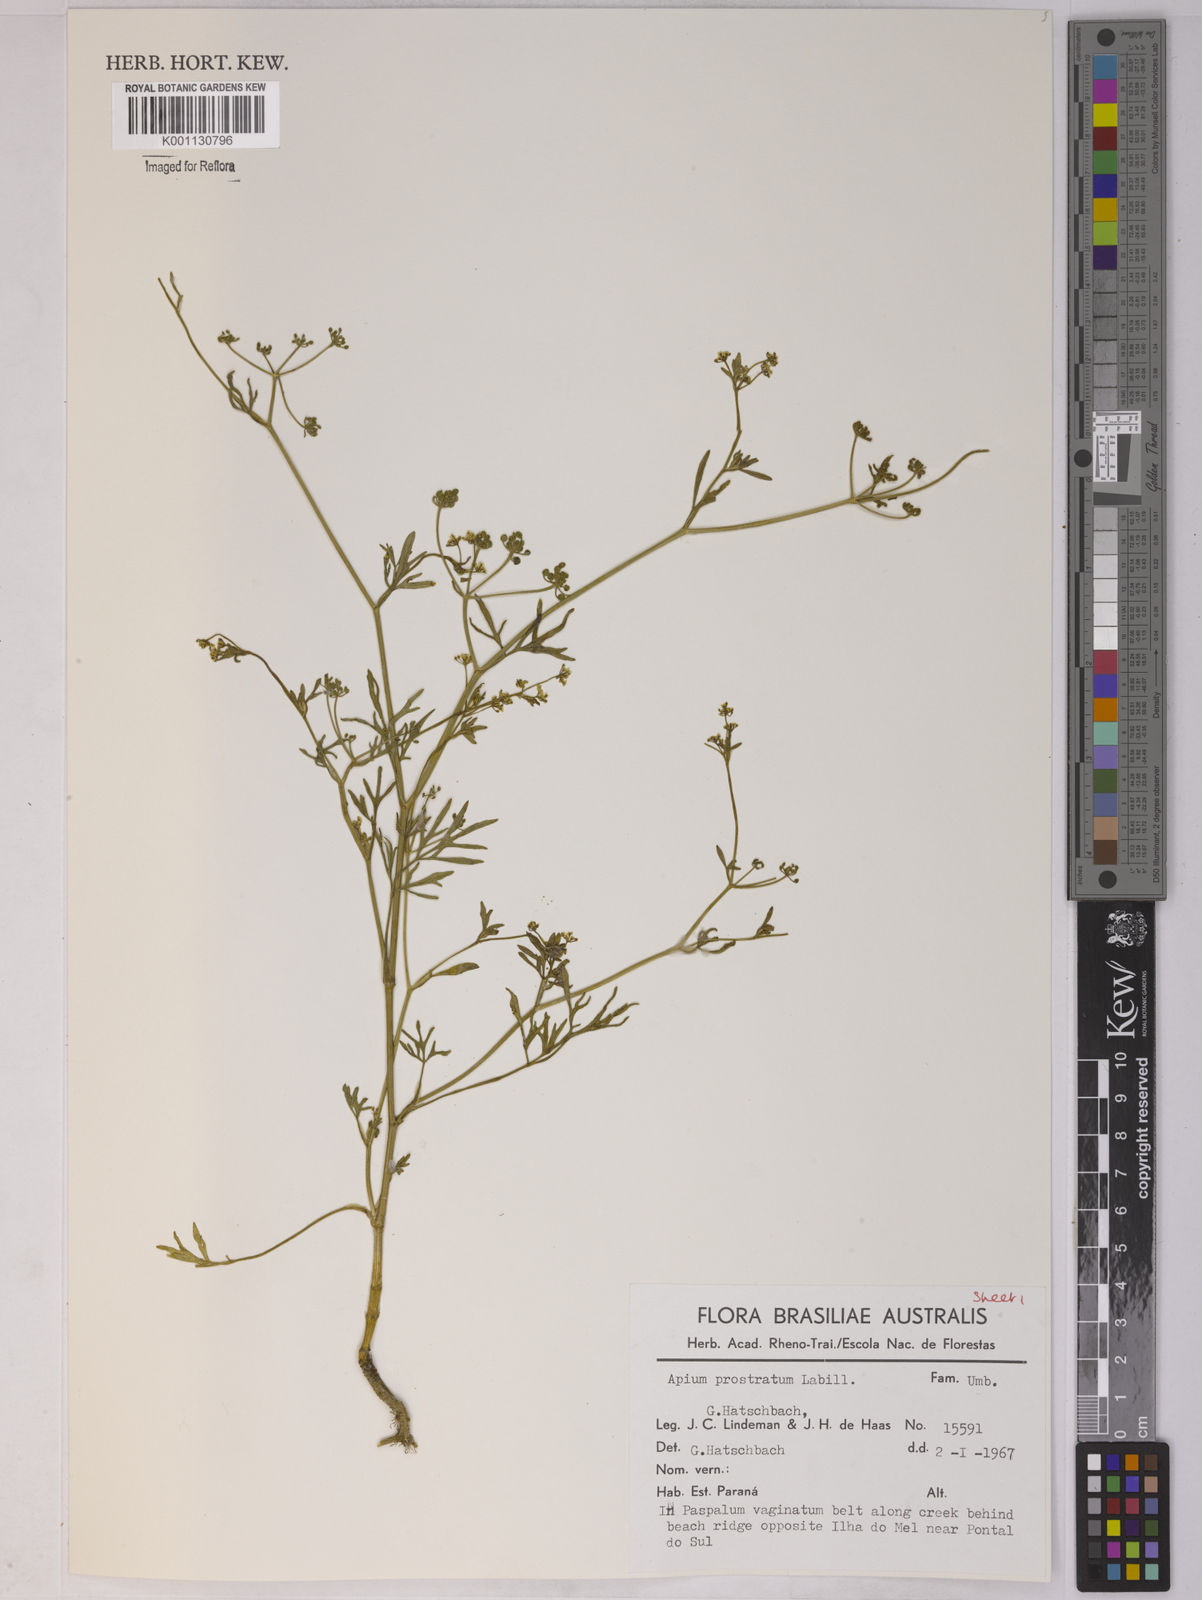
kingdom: Plantae
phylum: Tracheophyta
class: Magnoliopsida
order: Apiales
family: Apiaceae
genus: Apium
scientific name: Apium
